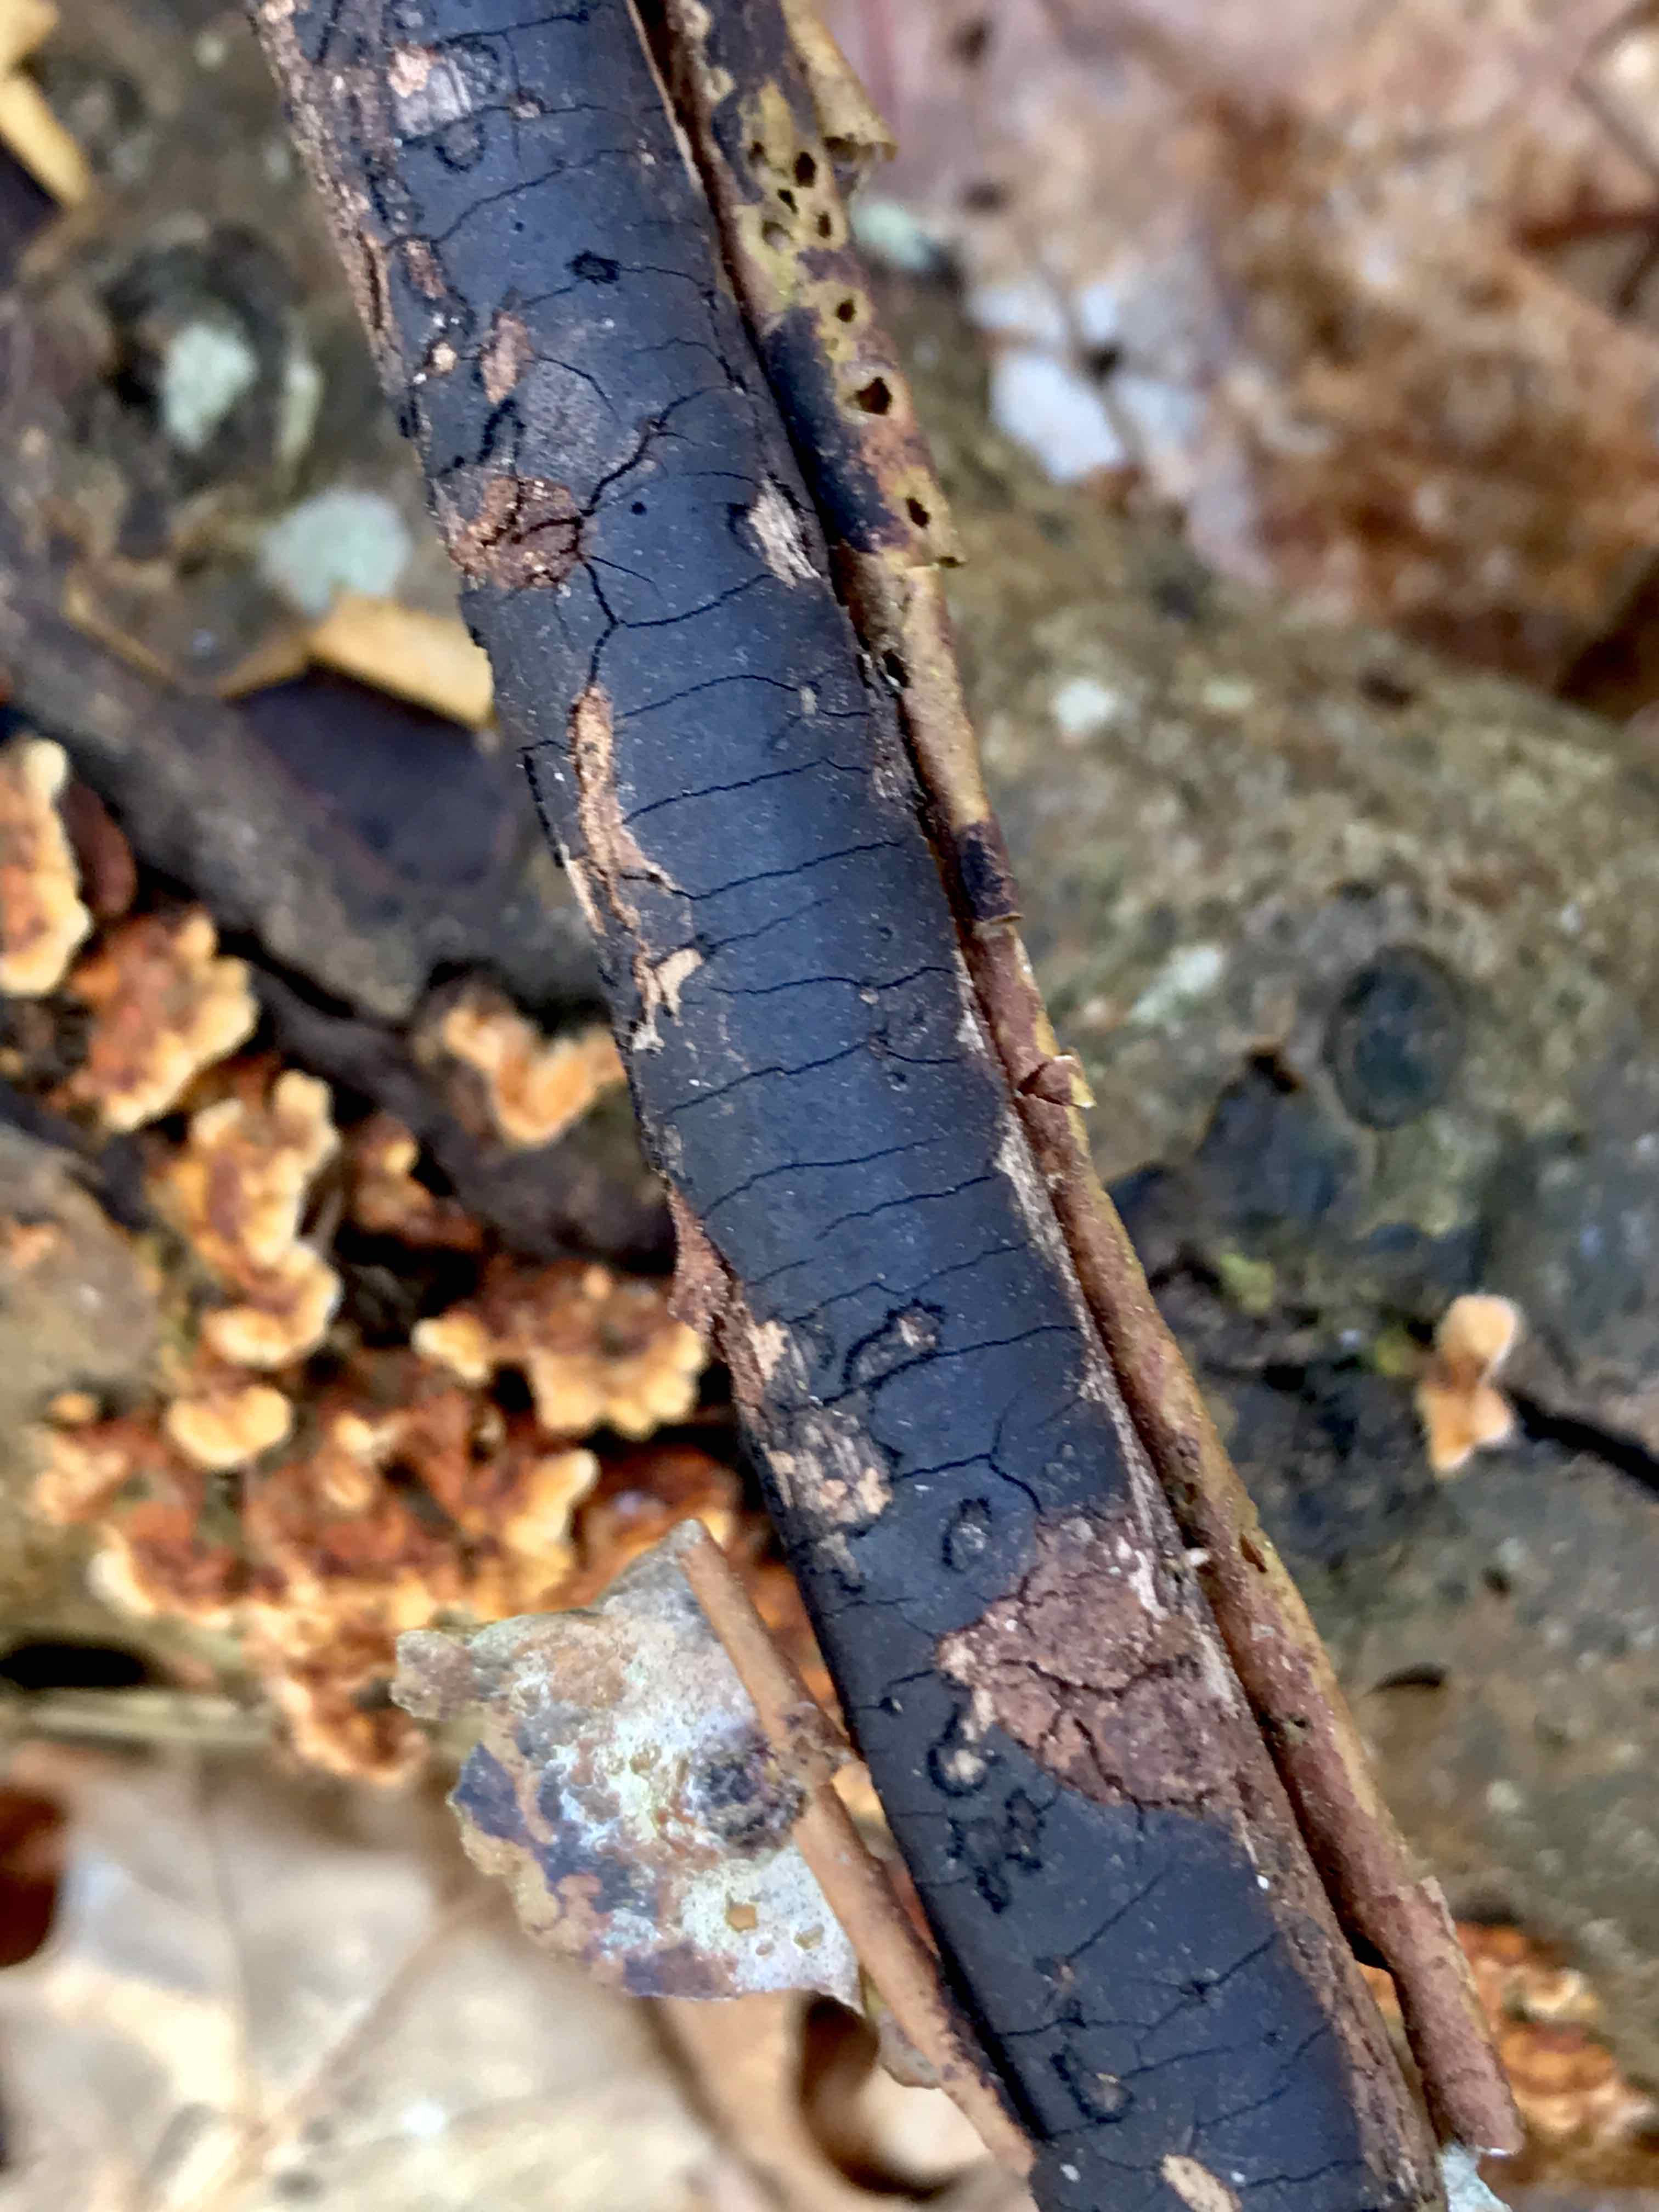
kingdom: Fungi
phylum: Ascomycota
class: Sordariomycetes
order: Xylariales
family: Diatrypaceae
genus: Diatrype
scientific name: Diatrype decorticata
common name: barksprænger-kulskorpe
